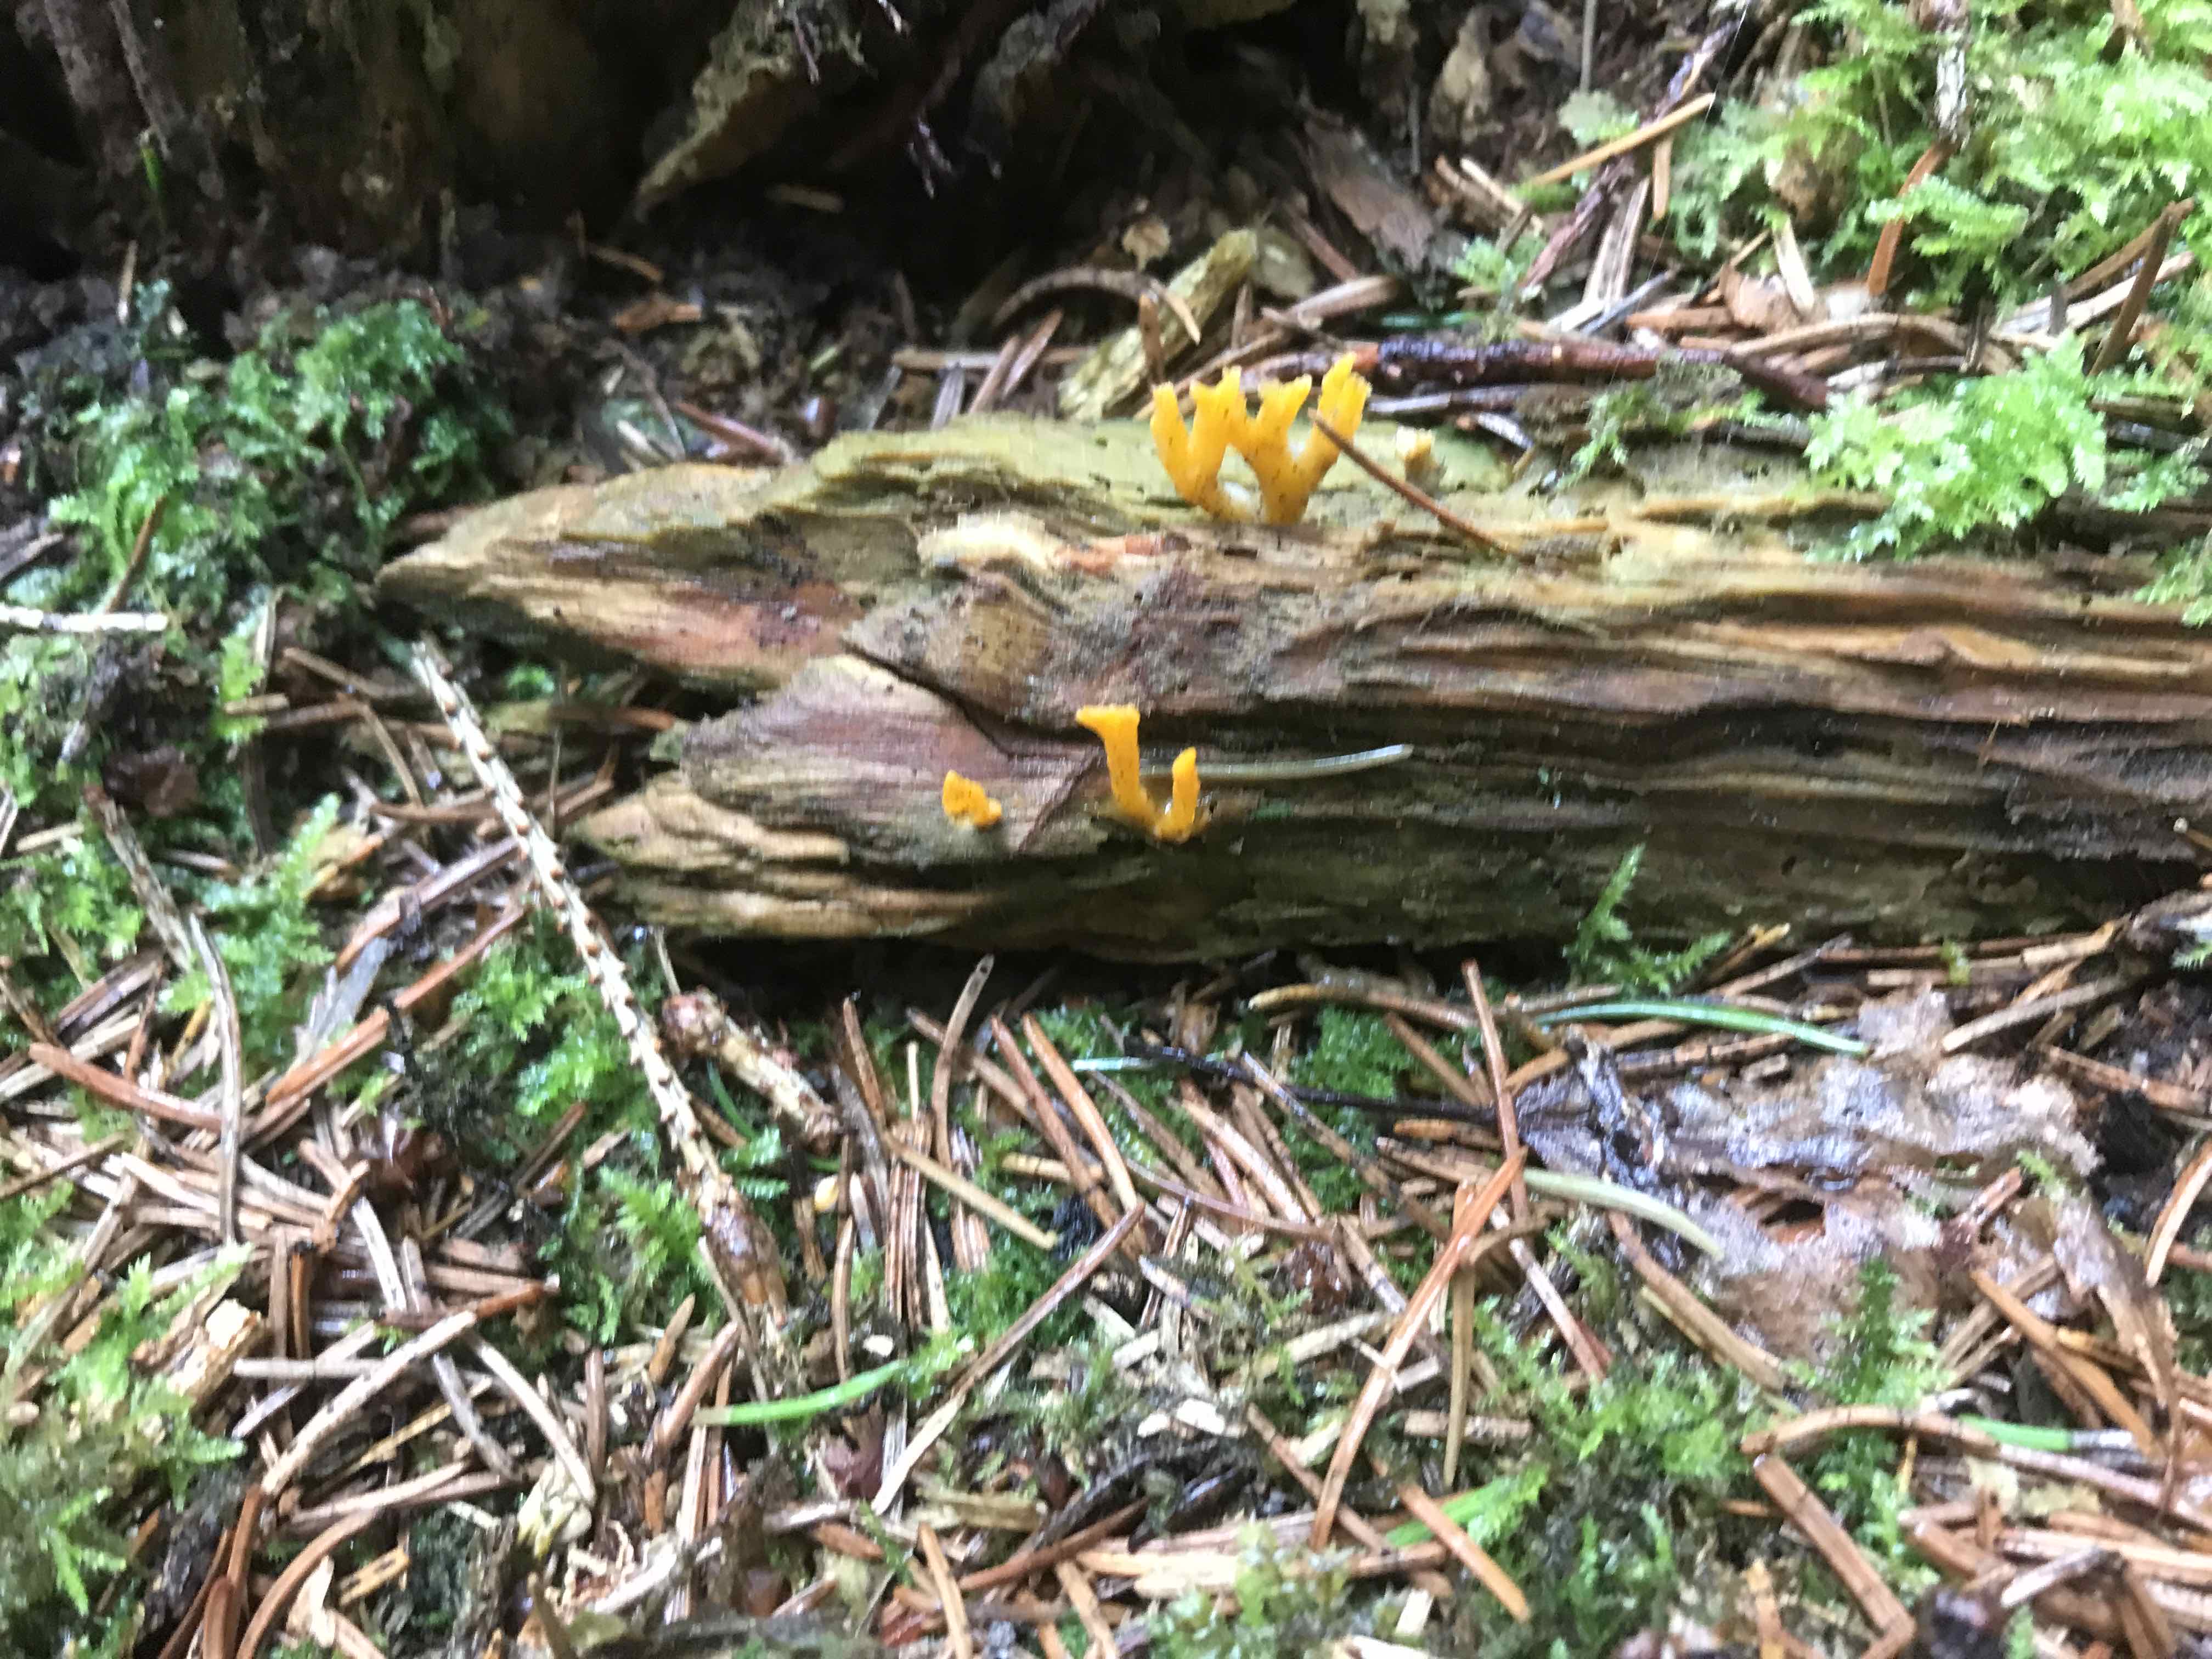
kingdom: Fungi
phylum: Basidiomycota
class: Dacrymycetes
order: Dacrymycetales
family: Dacrymycetaceae
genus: Calocera
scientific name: Calocera viscosa
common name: almindelig guldgaffel
